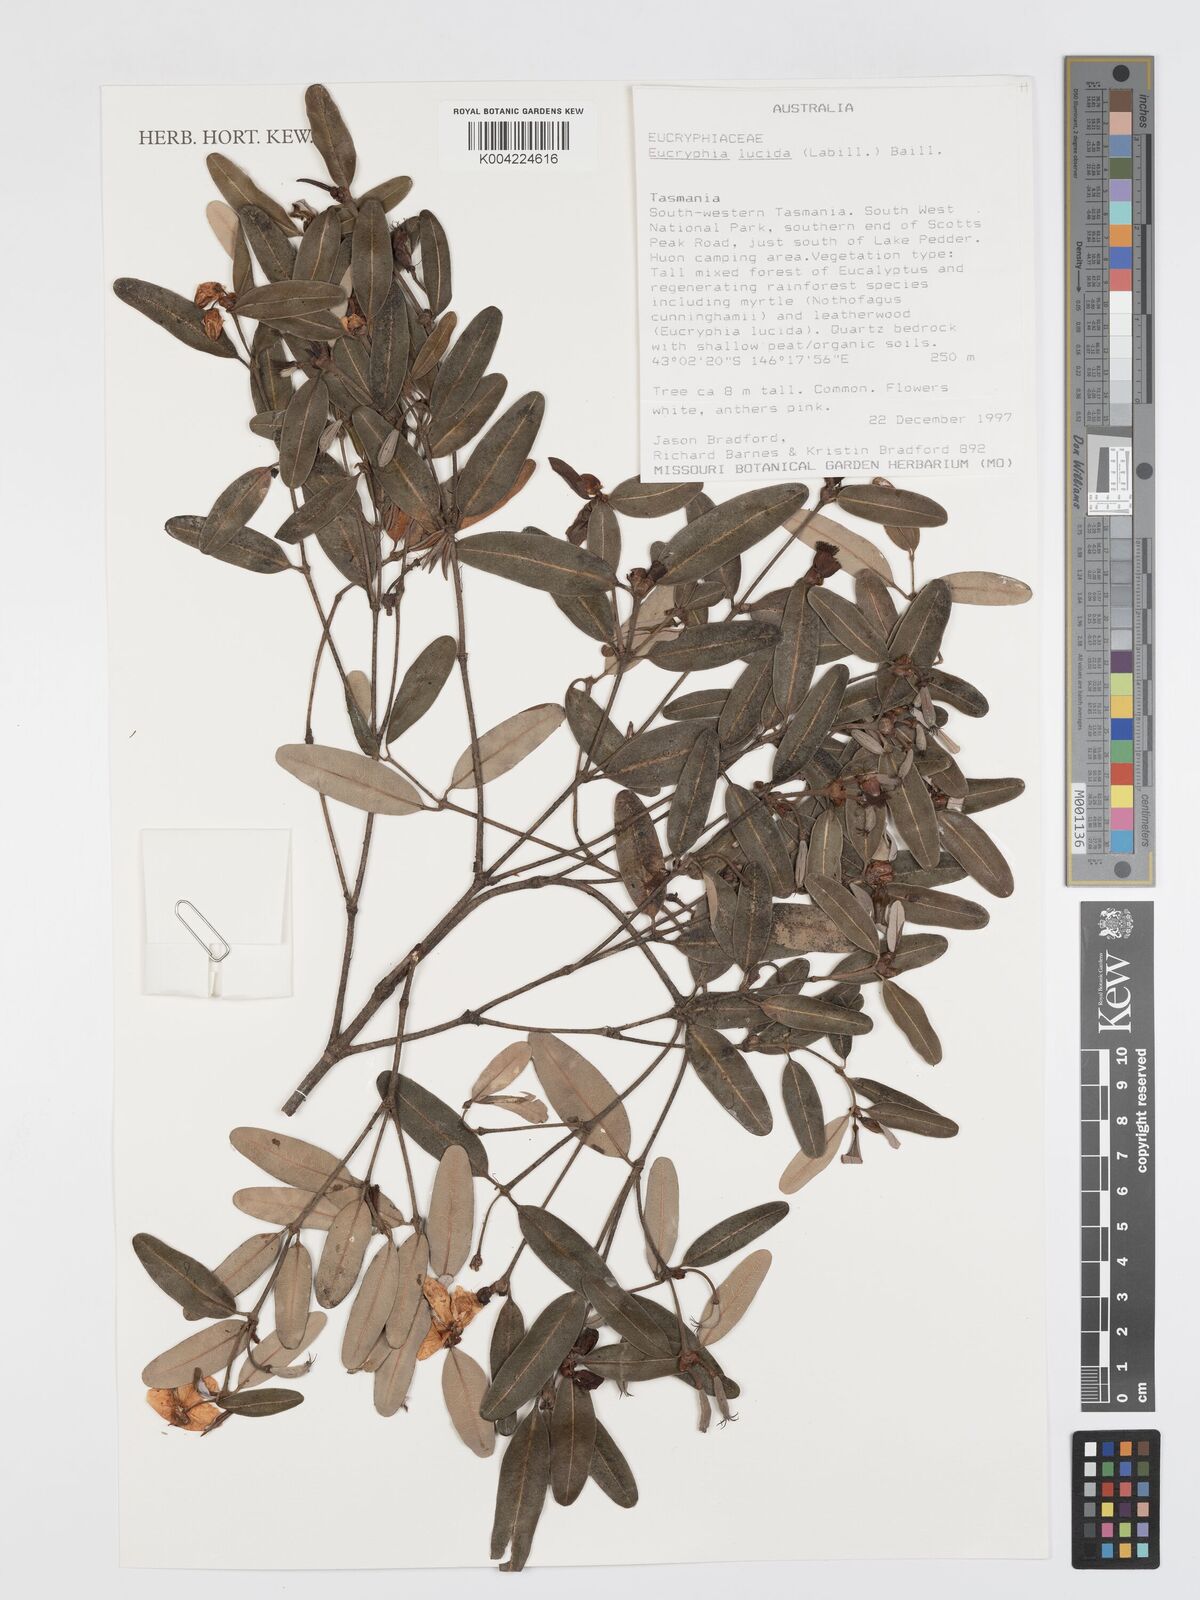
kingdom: Plantae
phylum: Tracheophyta
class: Magnoliopsida
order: Oxalidales
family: Cunoniaceae
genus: Eucryphia
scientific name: Eucryphia lucida
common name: Leatherwood
